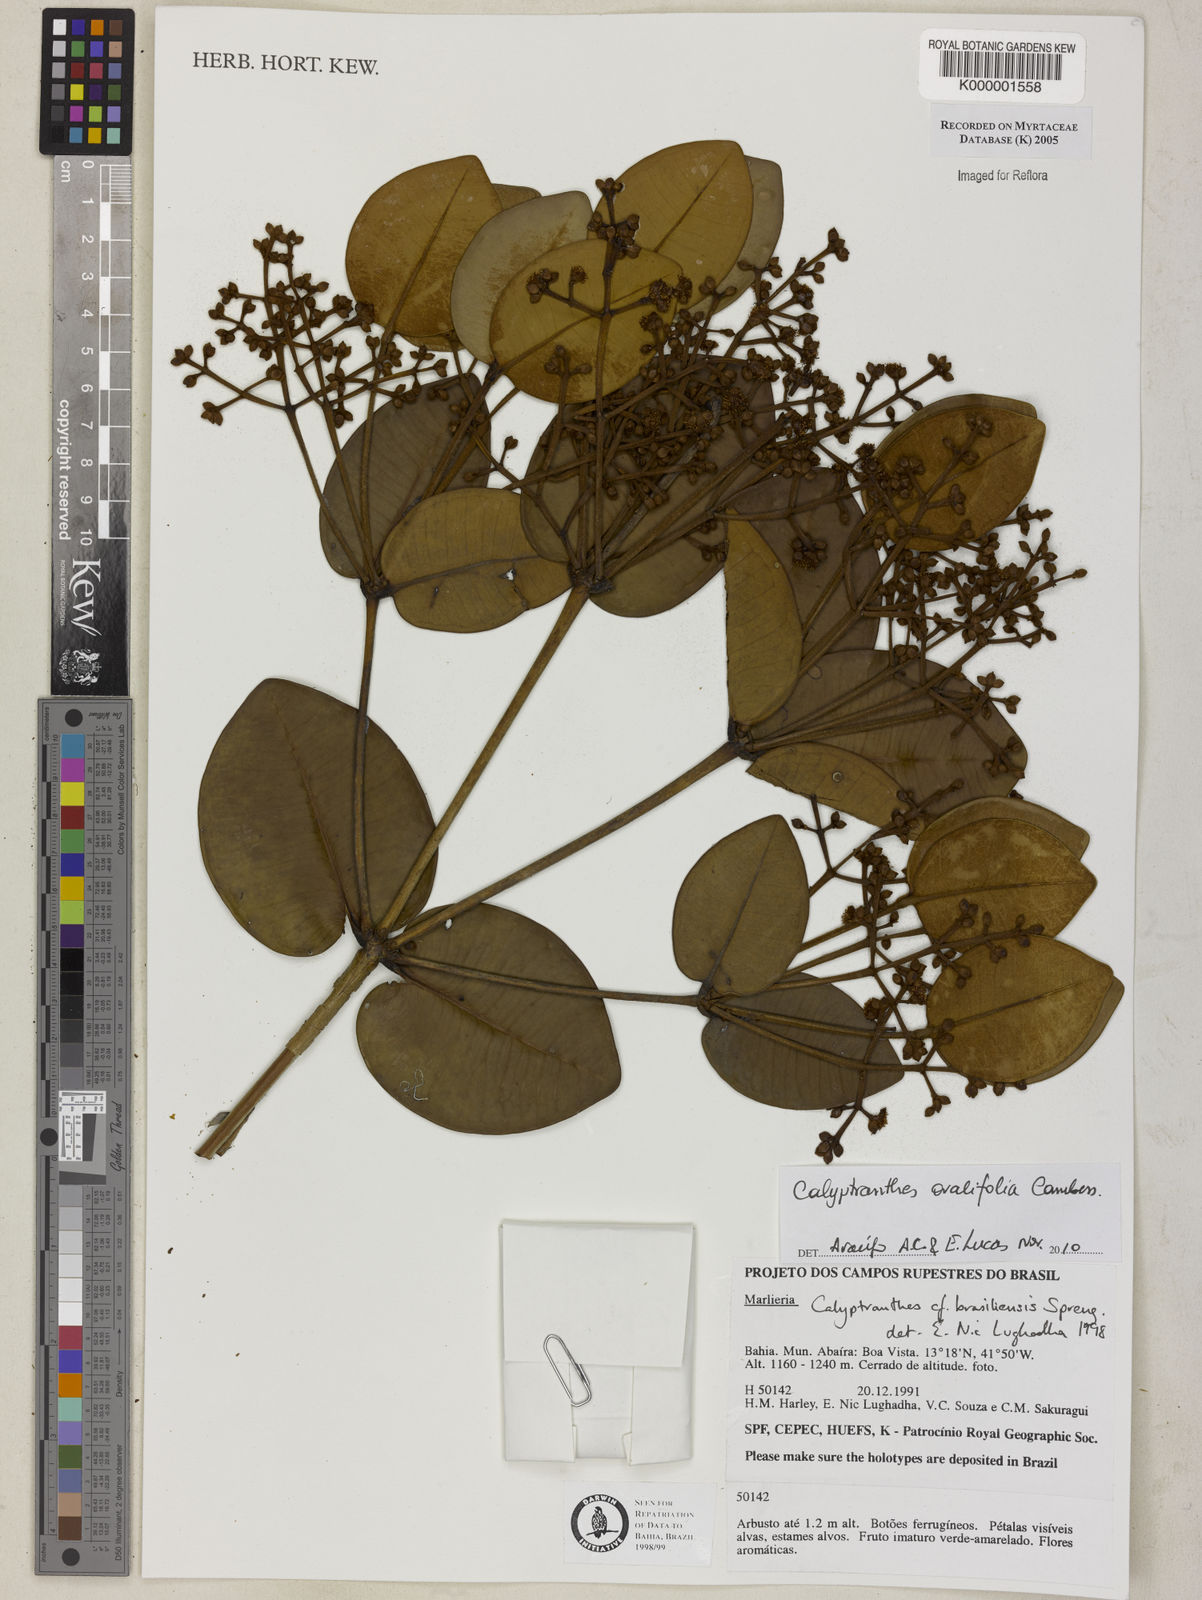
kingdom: Plantae
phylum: Tracheophyta
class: Magnoliopsida
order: Myrtales
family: Myrtaceae
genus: Myrcia
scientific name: Myrcia neobrasiliensis
